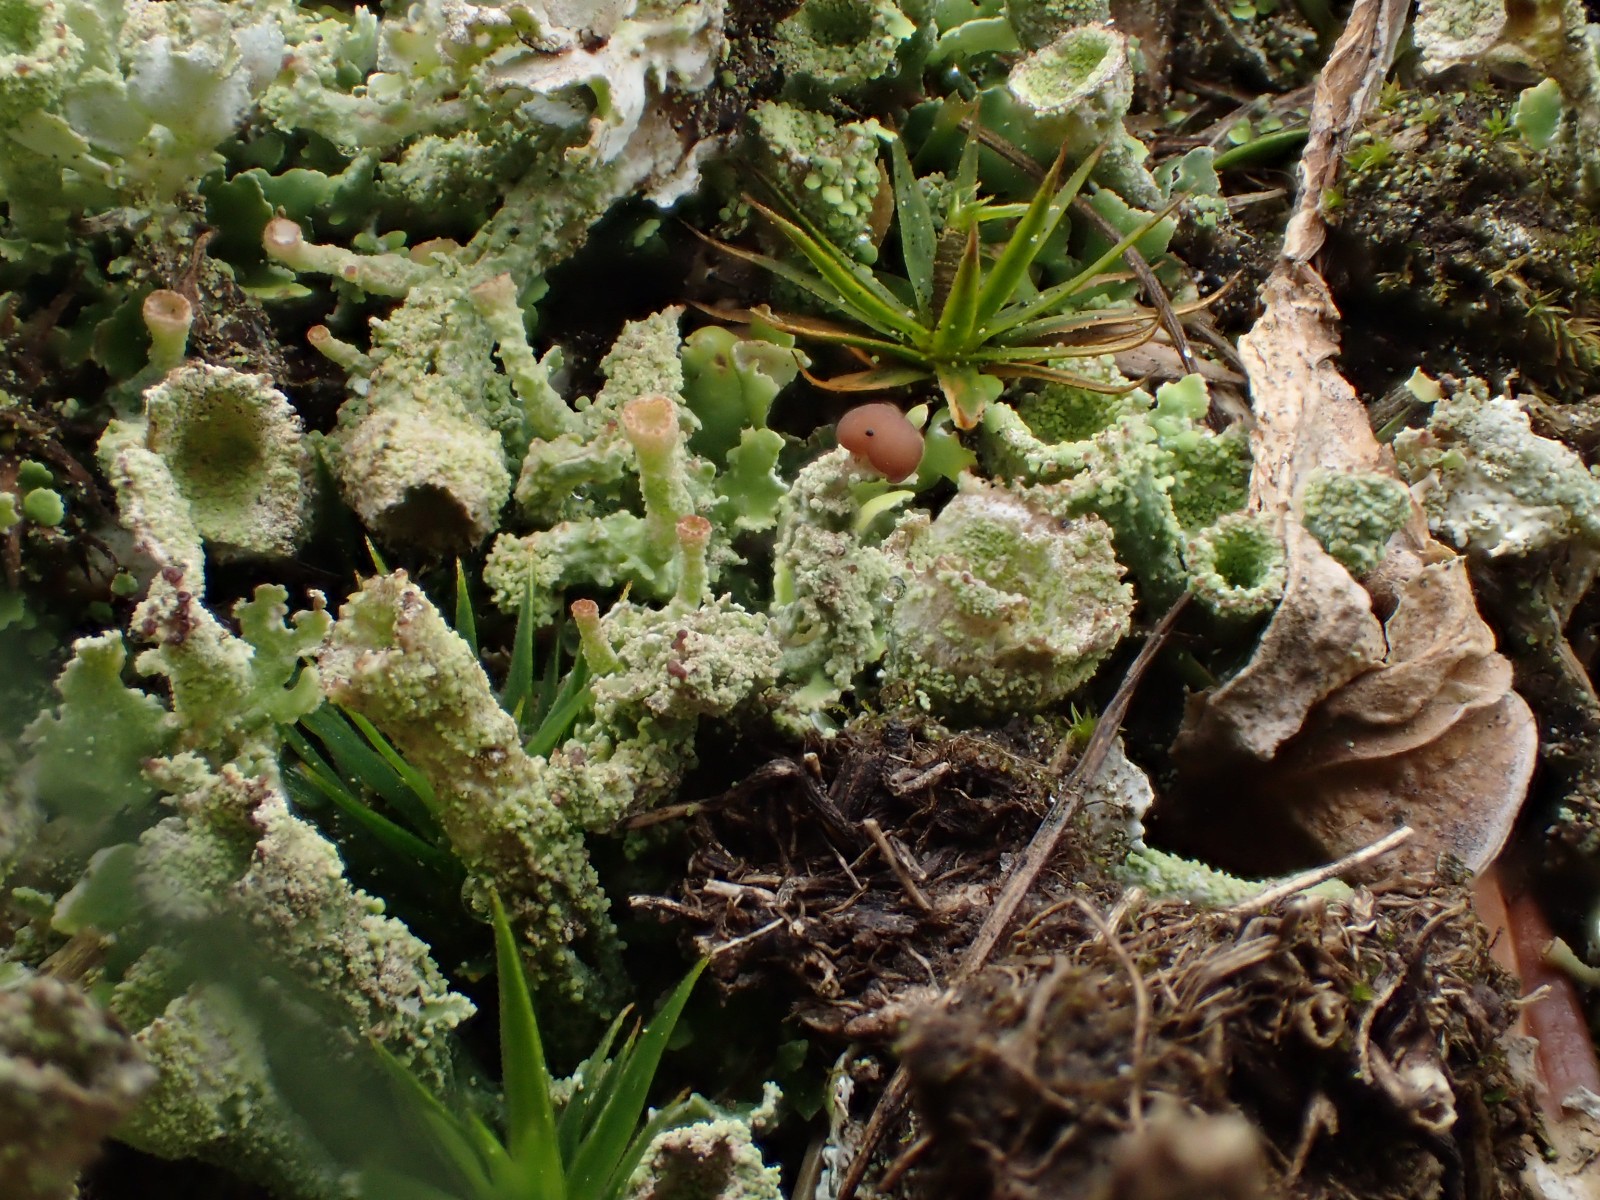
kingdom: Fungi
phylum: Ascomycota
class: Lecanoromycetes
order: Lecanorales
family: Cladoniaceae
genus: Cladonia
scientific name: Cladonia
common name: brungrøn bægerlav
